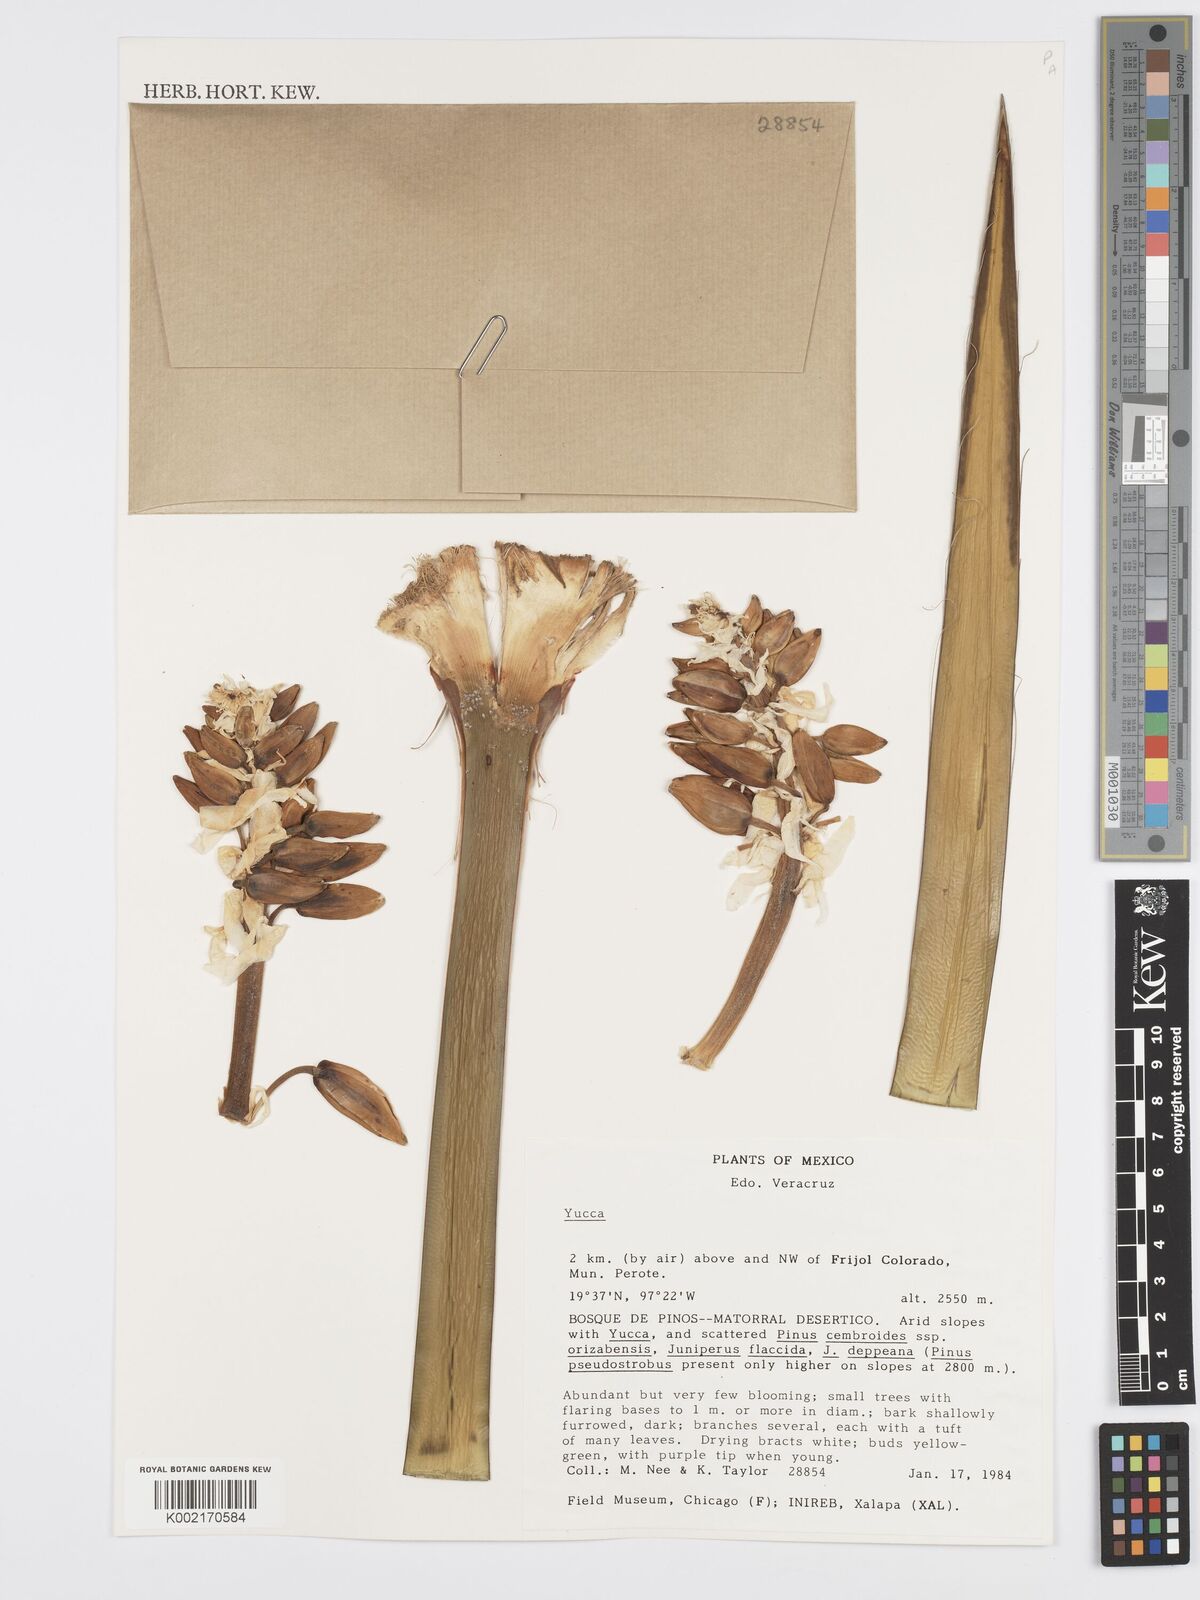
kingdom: Plantae
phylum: Tracheophyta
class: Liliopsida
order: Asparagales
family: Asparagaceae
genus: Yucca
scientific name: Yucca
